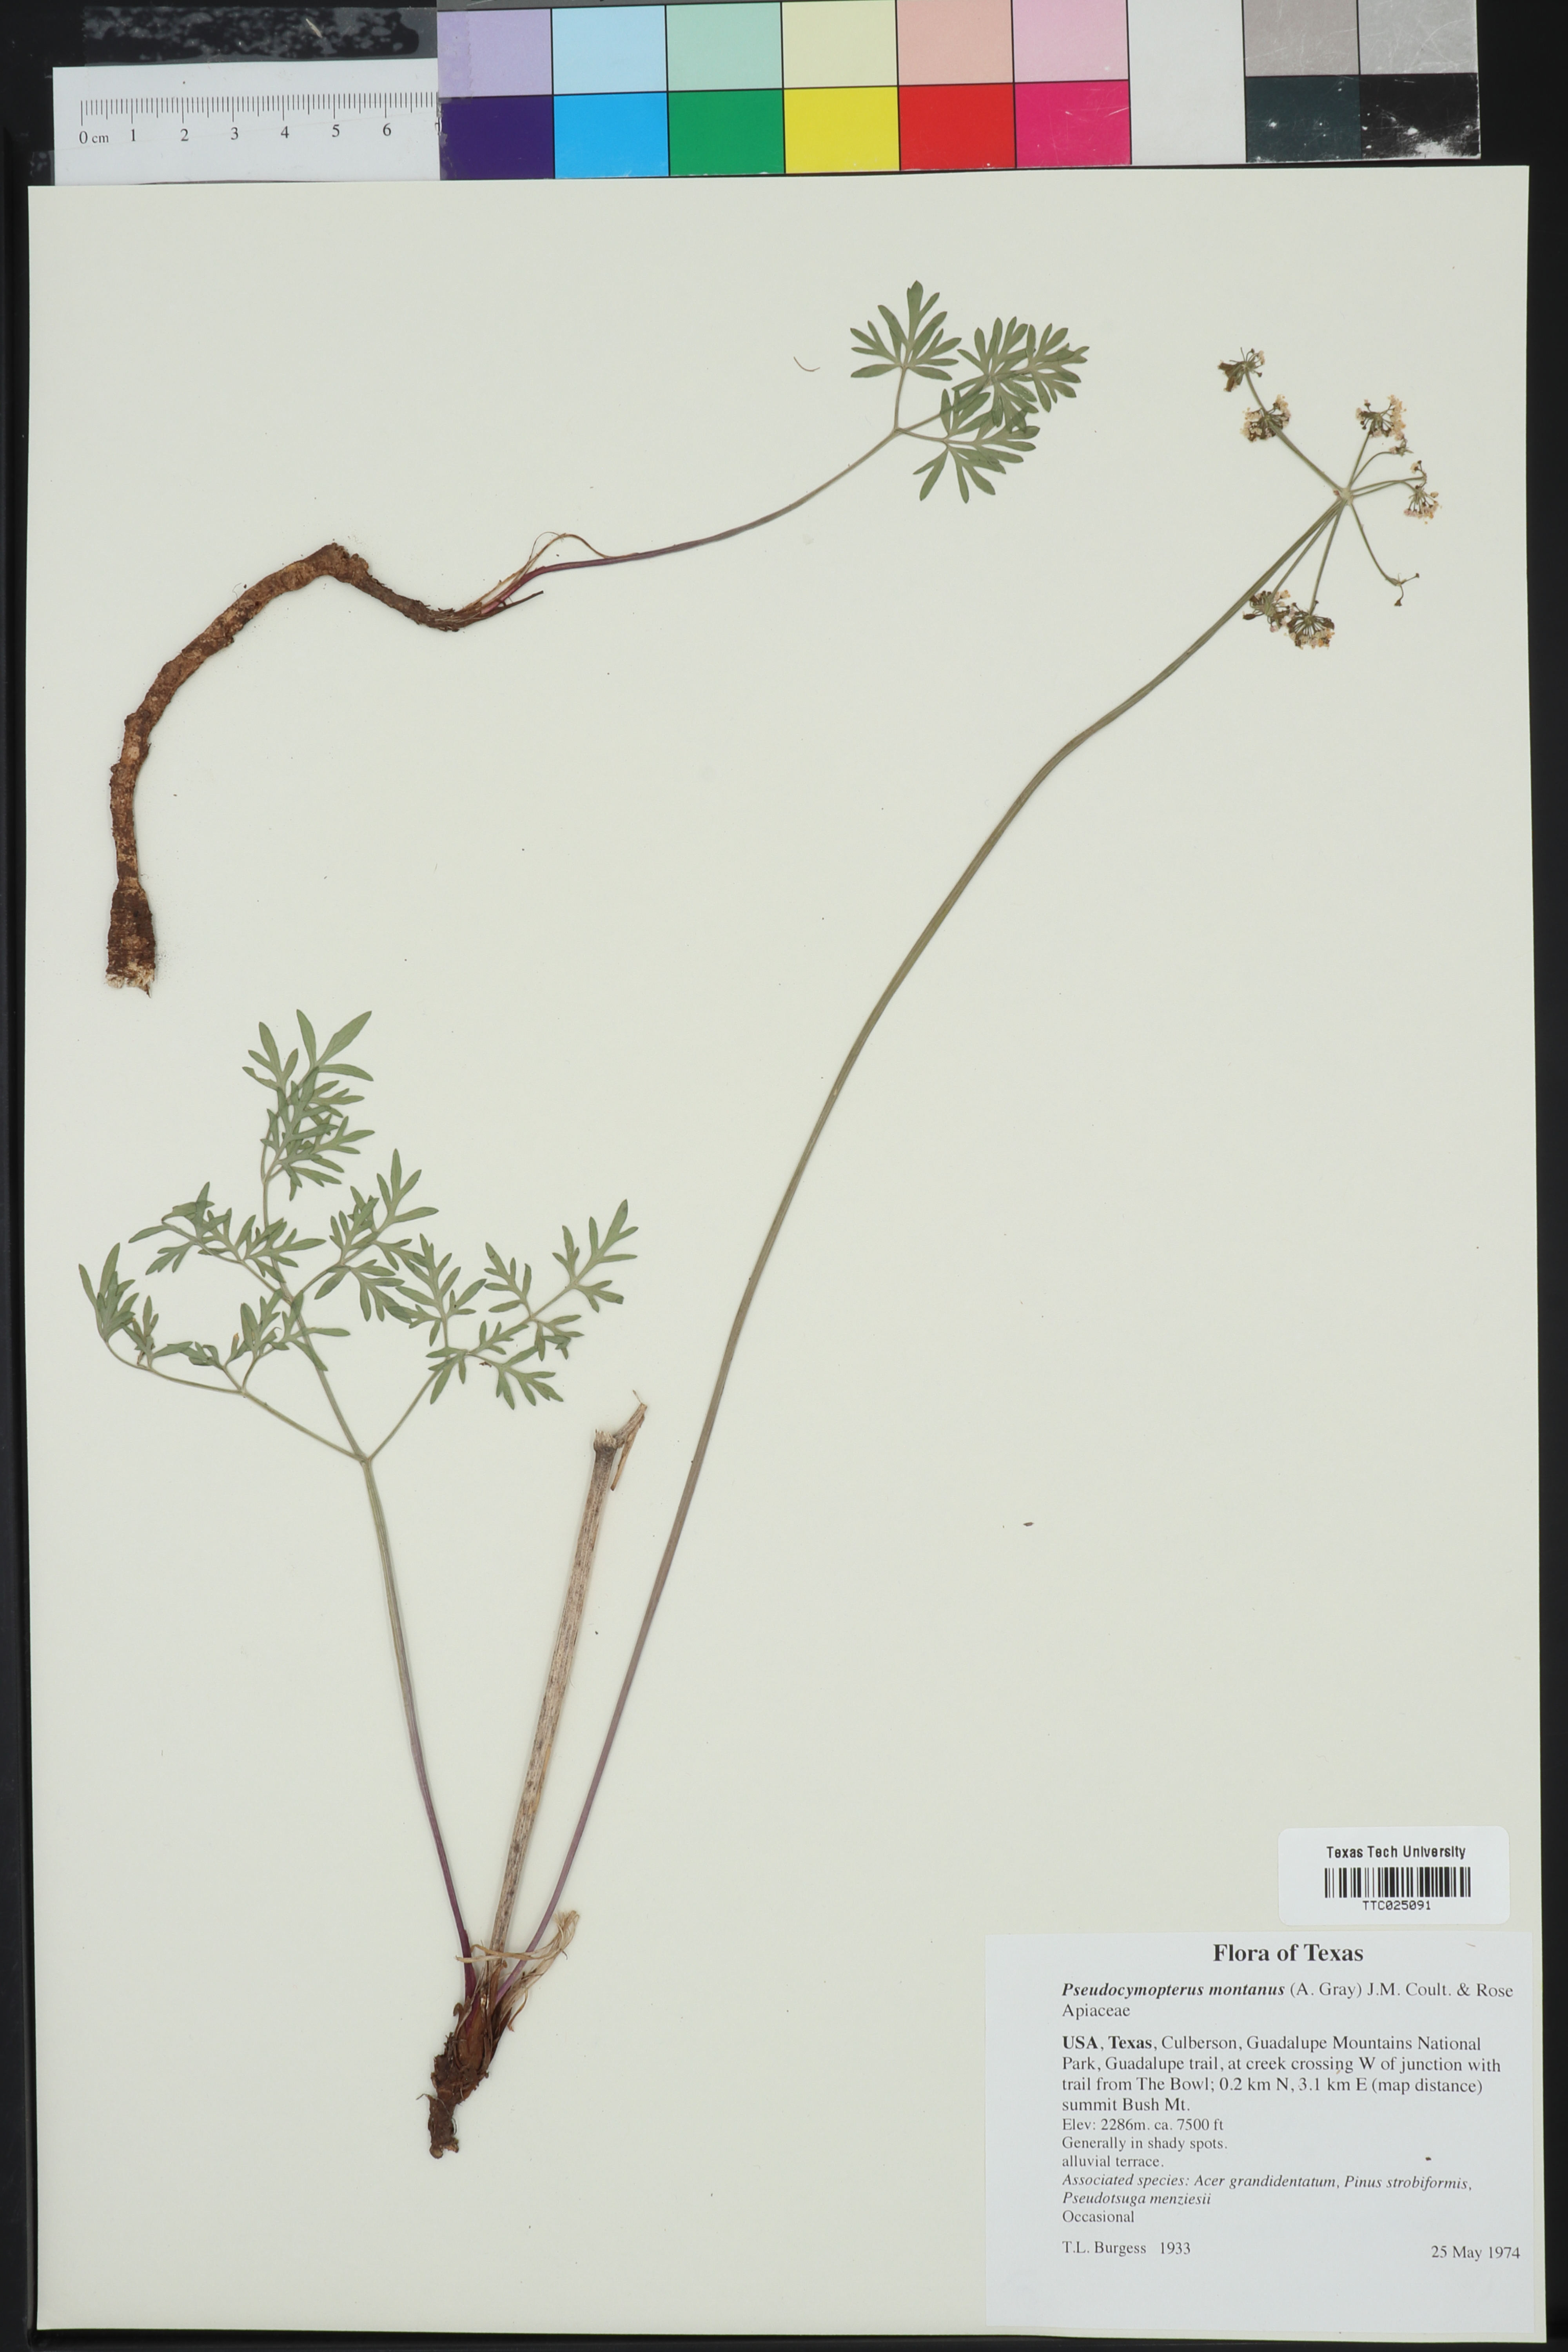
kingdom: Plantae
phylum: Tracheophyta
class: Magnoliopsida
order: Apiales
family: Apiaceae
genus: Cymopterus
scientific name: Cymopterus lemmonii
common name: Lemmon's spring-parsley
